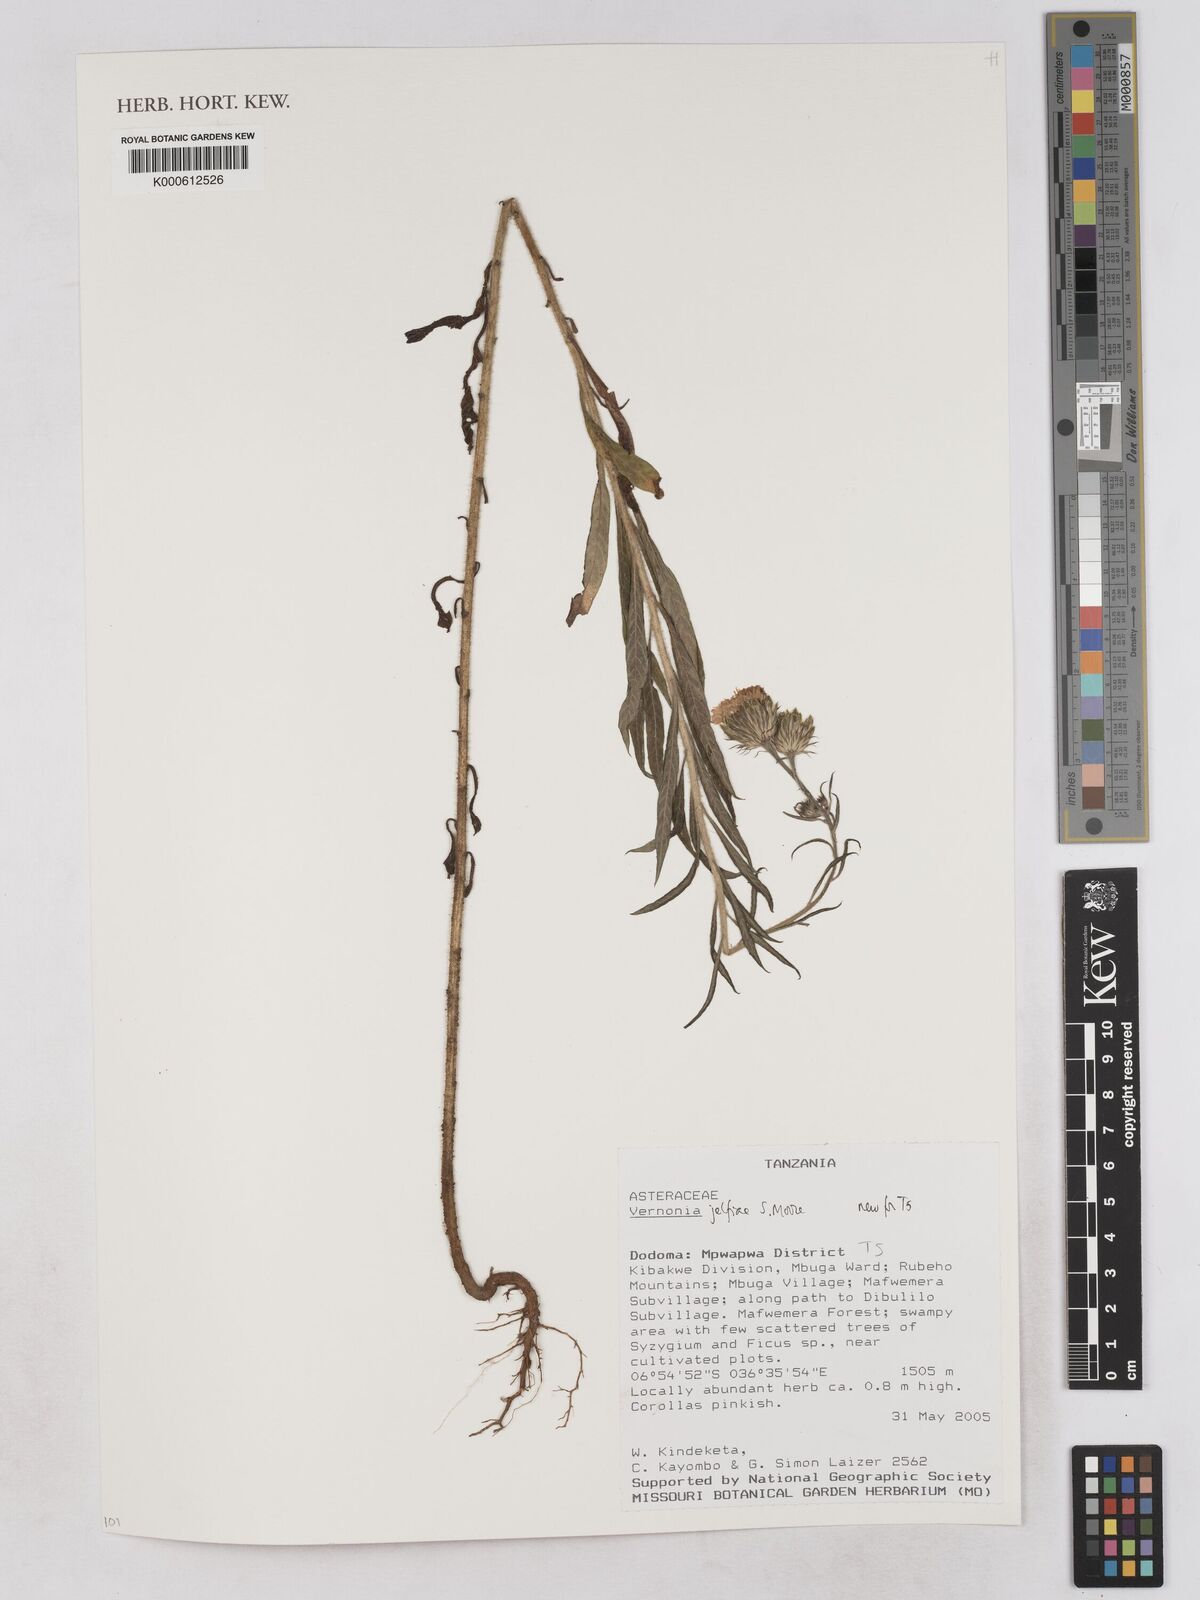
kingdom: Plantae
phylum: Tracheophyta
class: Magnoliopsida
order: Asterales
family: Asteraceae
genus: Crystallopollen
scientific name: Crystallopollen jelfiae
